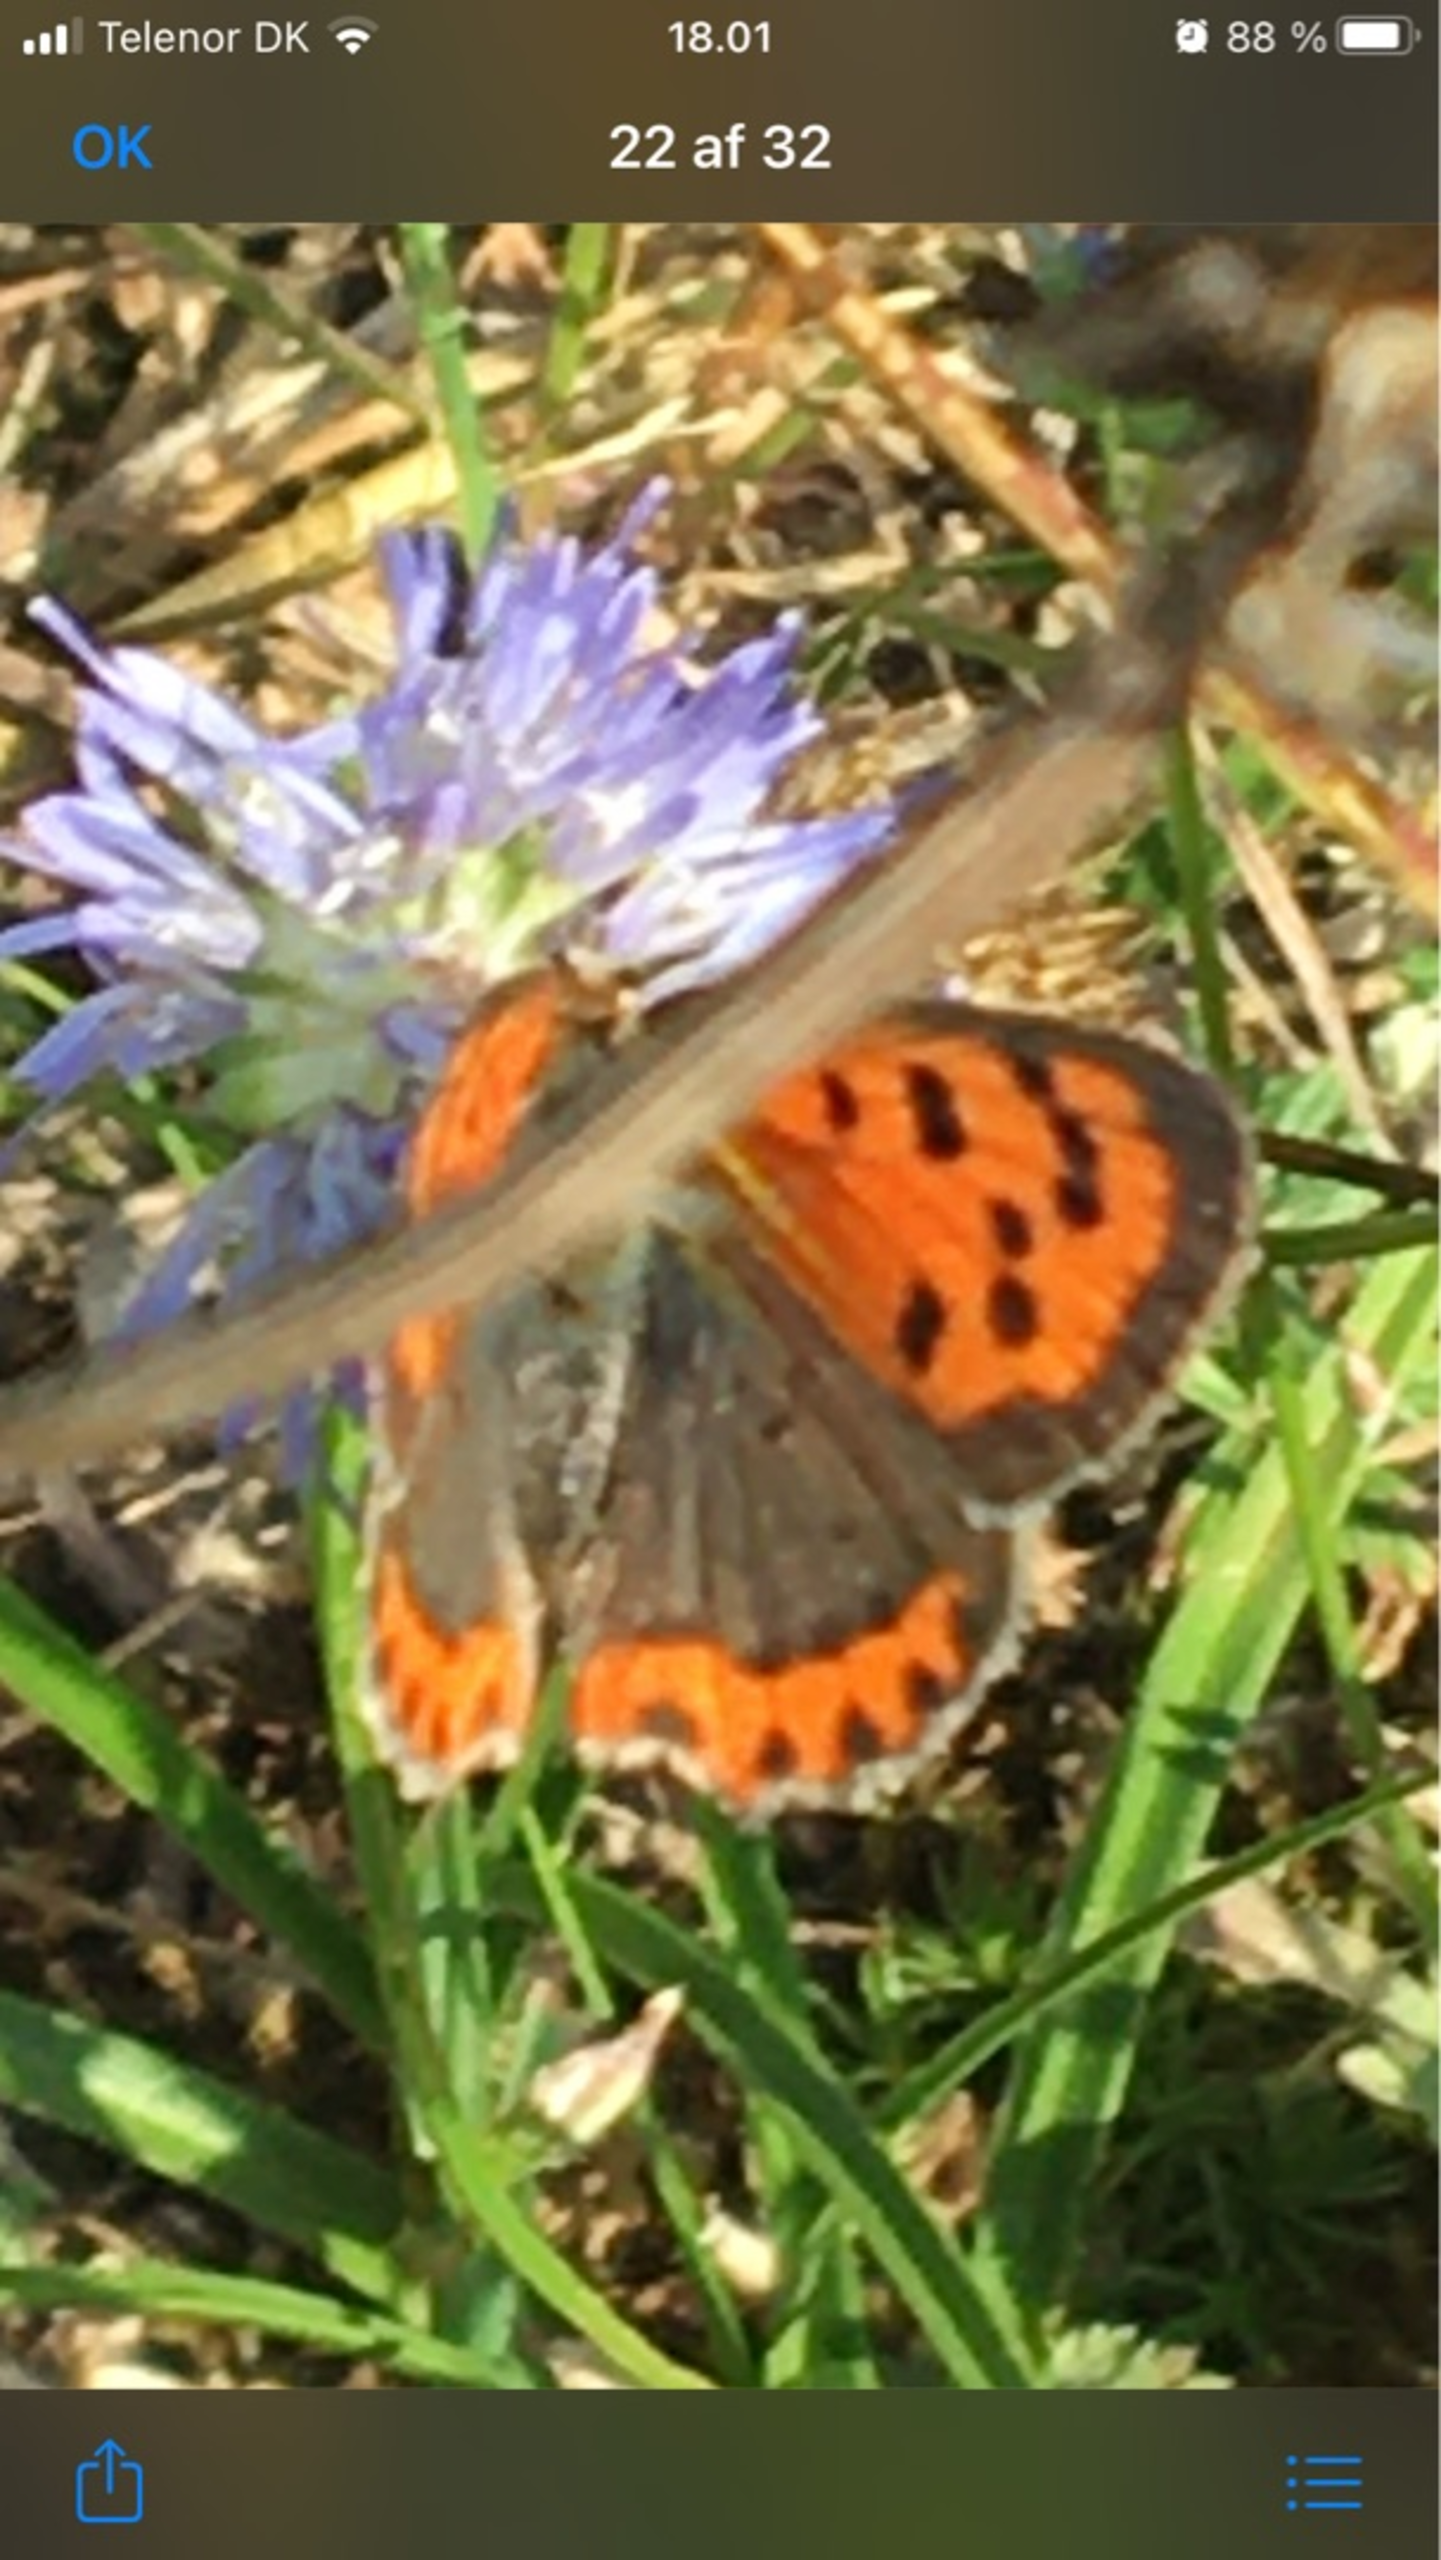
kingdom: Animalia
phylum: Arthropoda
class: Insecta
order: Lepidoptera
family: Lycaenidae
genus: Lycaena
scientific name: Lycaena phlaeas
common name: Lille ildfugl
